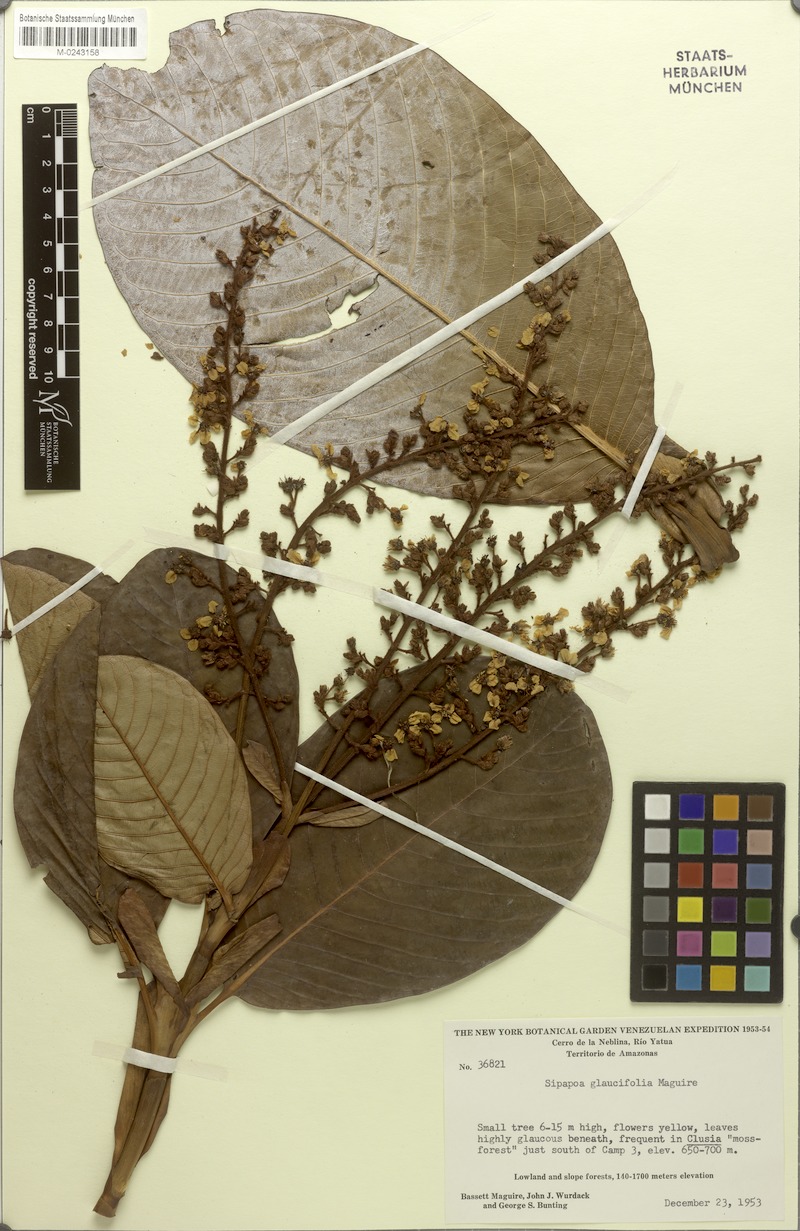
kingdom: Plantae
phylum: Tracheophyta
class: Magnoliopsida
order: Malpighiales
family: Malpighiaceae
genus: Diacidia
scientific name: Diacidia glaucifolia
